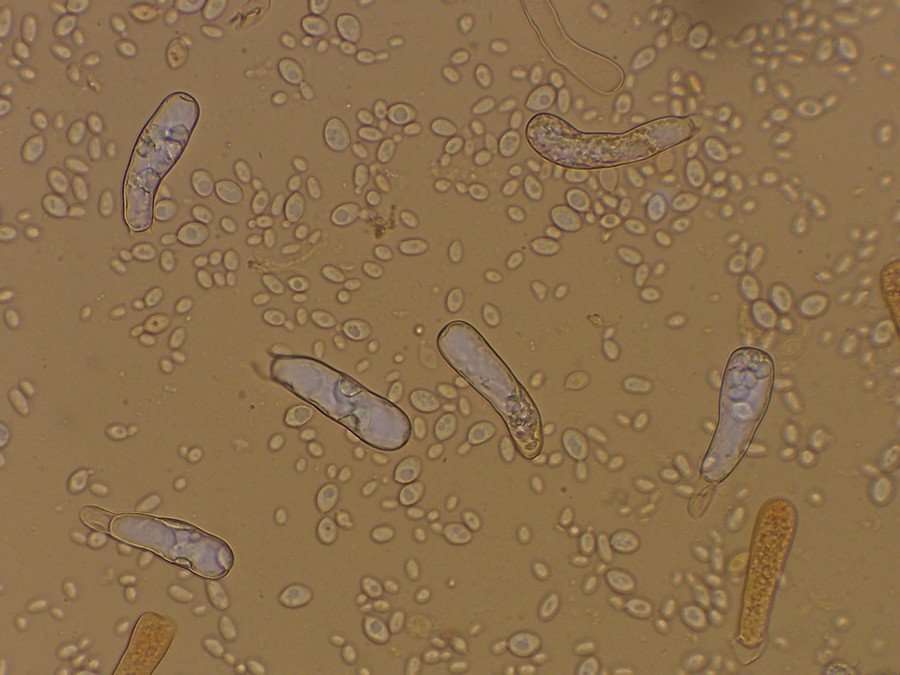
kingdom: Fungi
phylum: Ascomycota
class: Taphrinomycetes
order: Taphrinales
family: Taphrinaceae
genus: Taphrina
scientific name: Taphrina pruni
